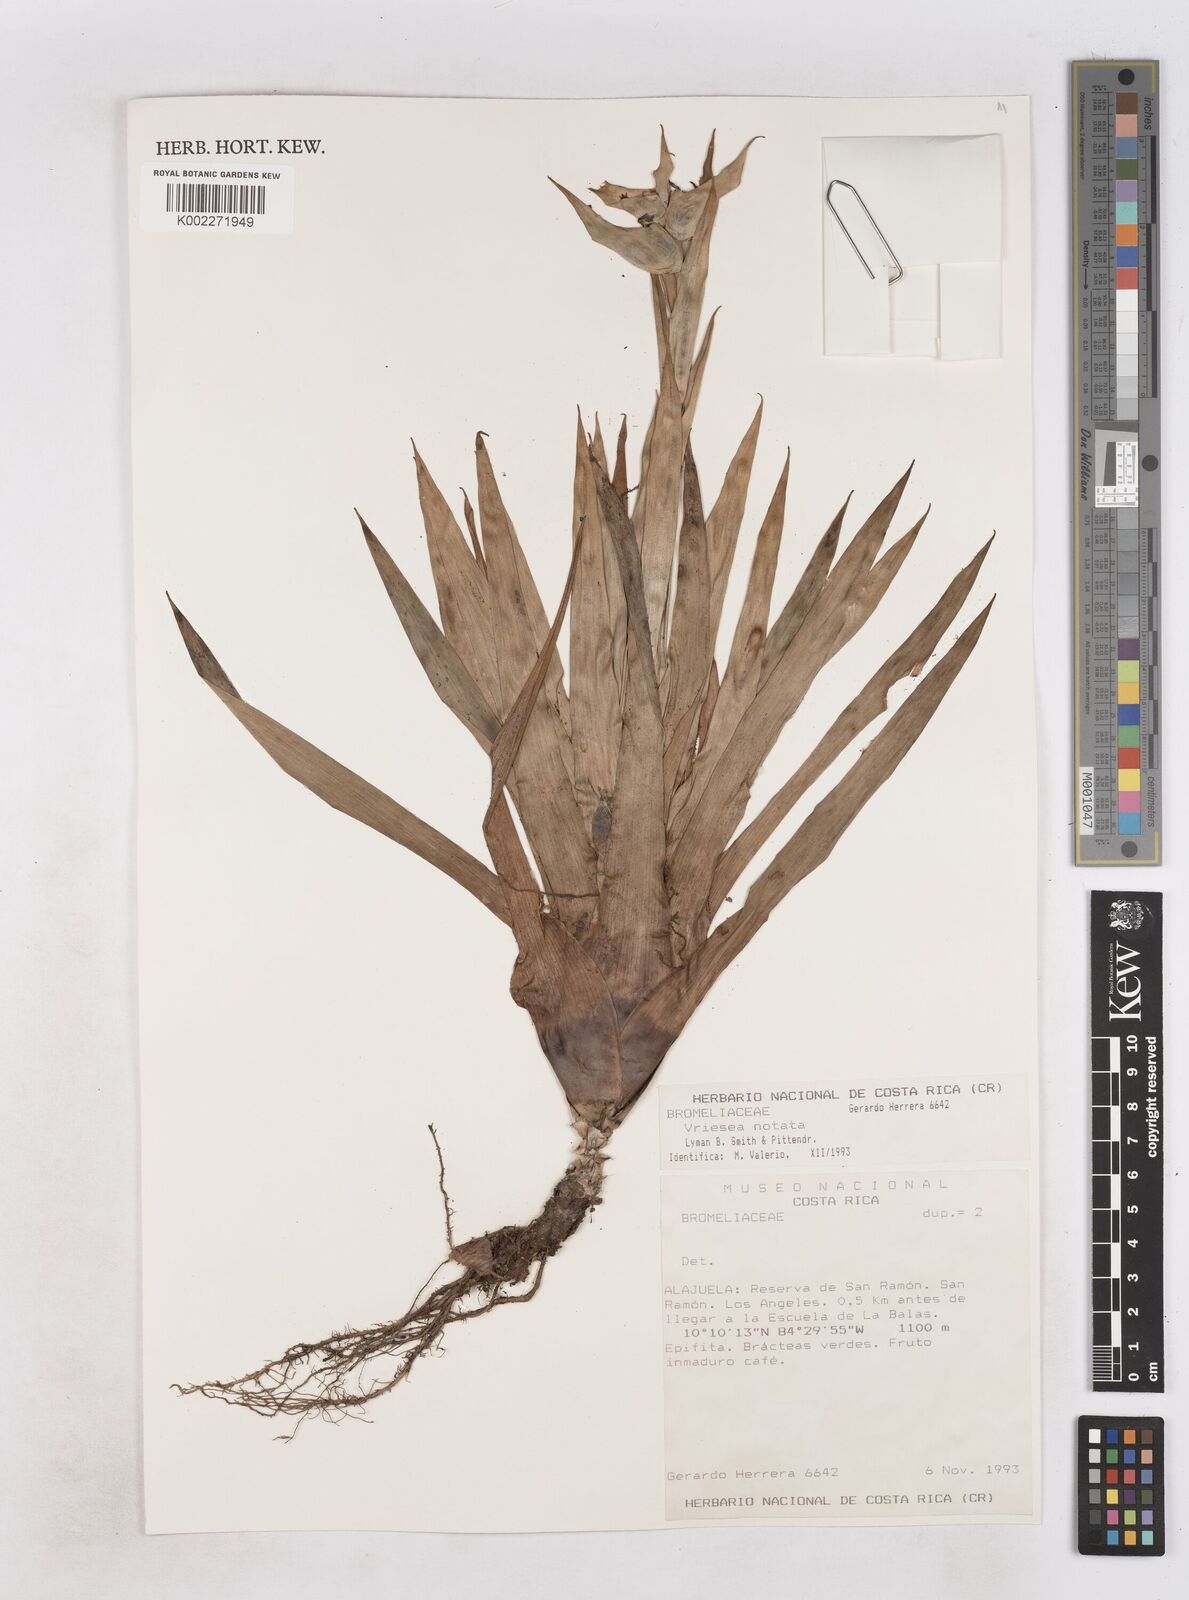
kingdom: Plantae
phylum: Tracheophyta
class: Liliopsida
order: Poales
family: Bromeliaceae
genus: Werauhia
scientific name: Werauhia notata
